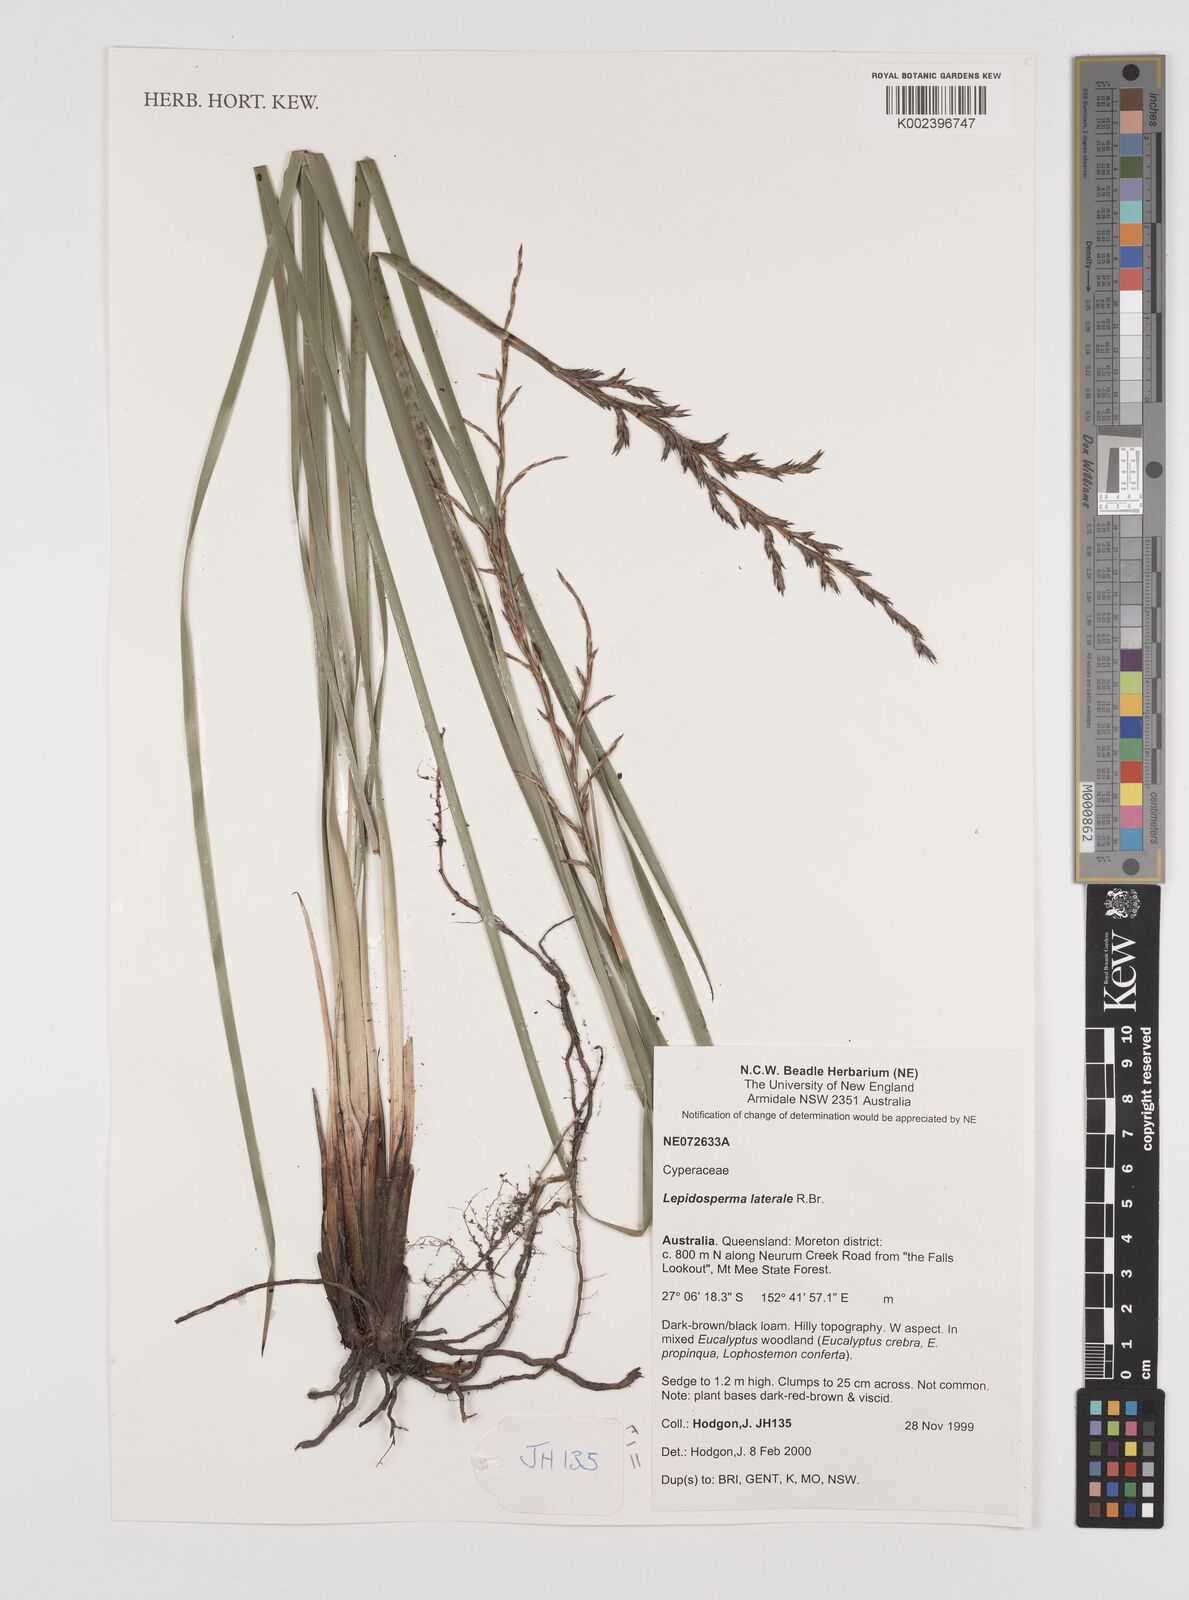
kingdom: Plantae
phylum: Tracheophyta
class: Liliopsida
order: Poales
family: Cyperaceae
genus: Lepidosperma
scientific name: Lepidosperma laterale
